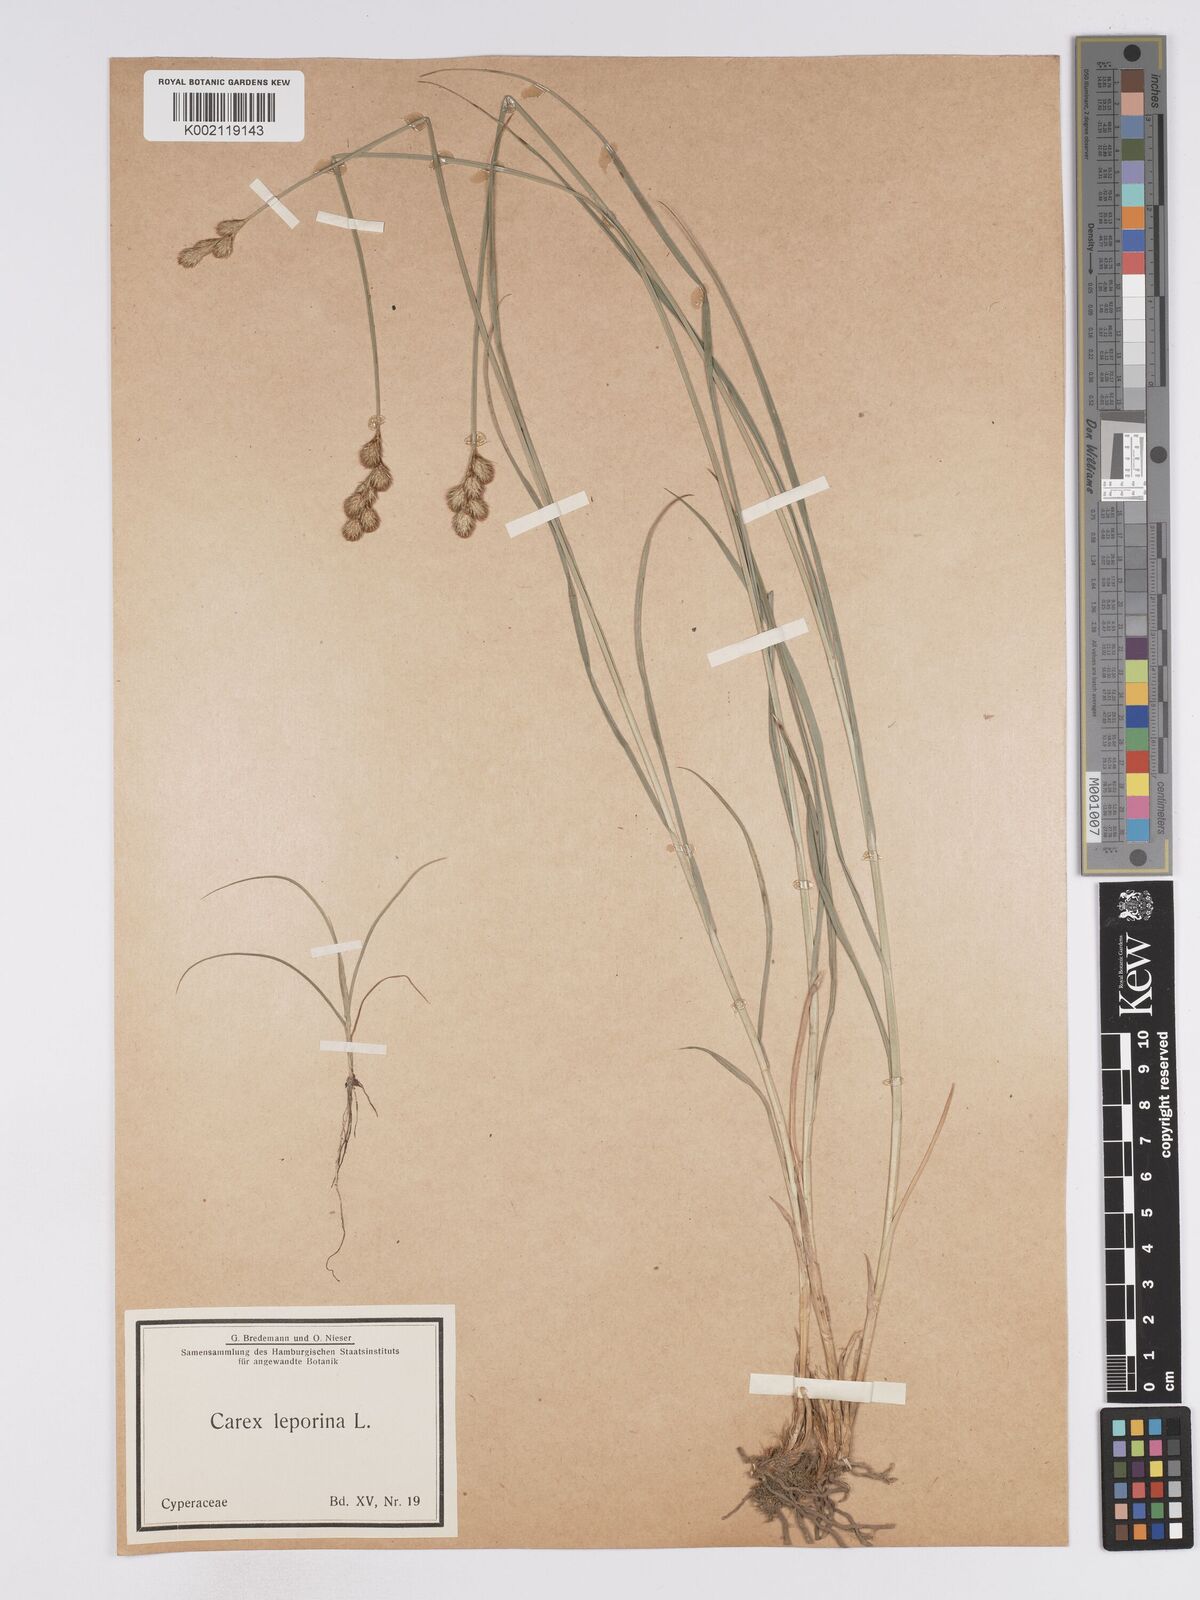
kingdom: Plantae
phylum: Tracheophyta
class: Liliopsida
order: Poales
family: Cyperaceae
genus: Carex
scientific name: Carex leporina
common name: Oval sedge
